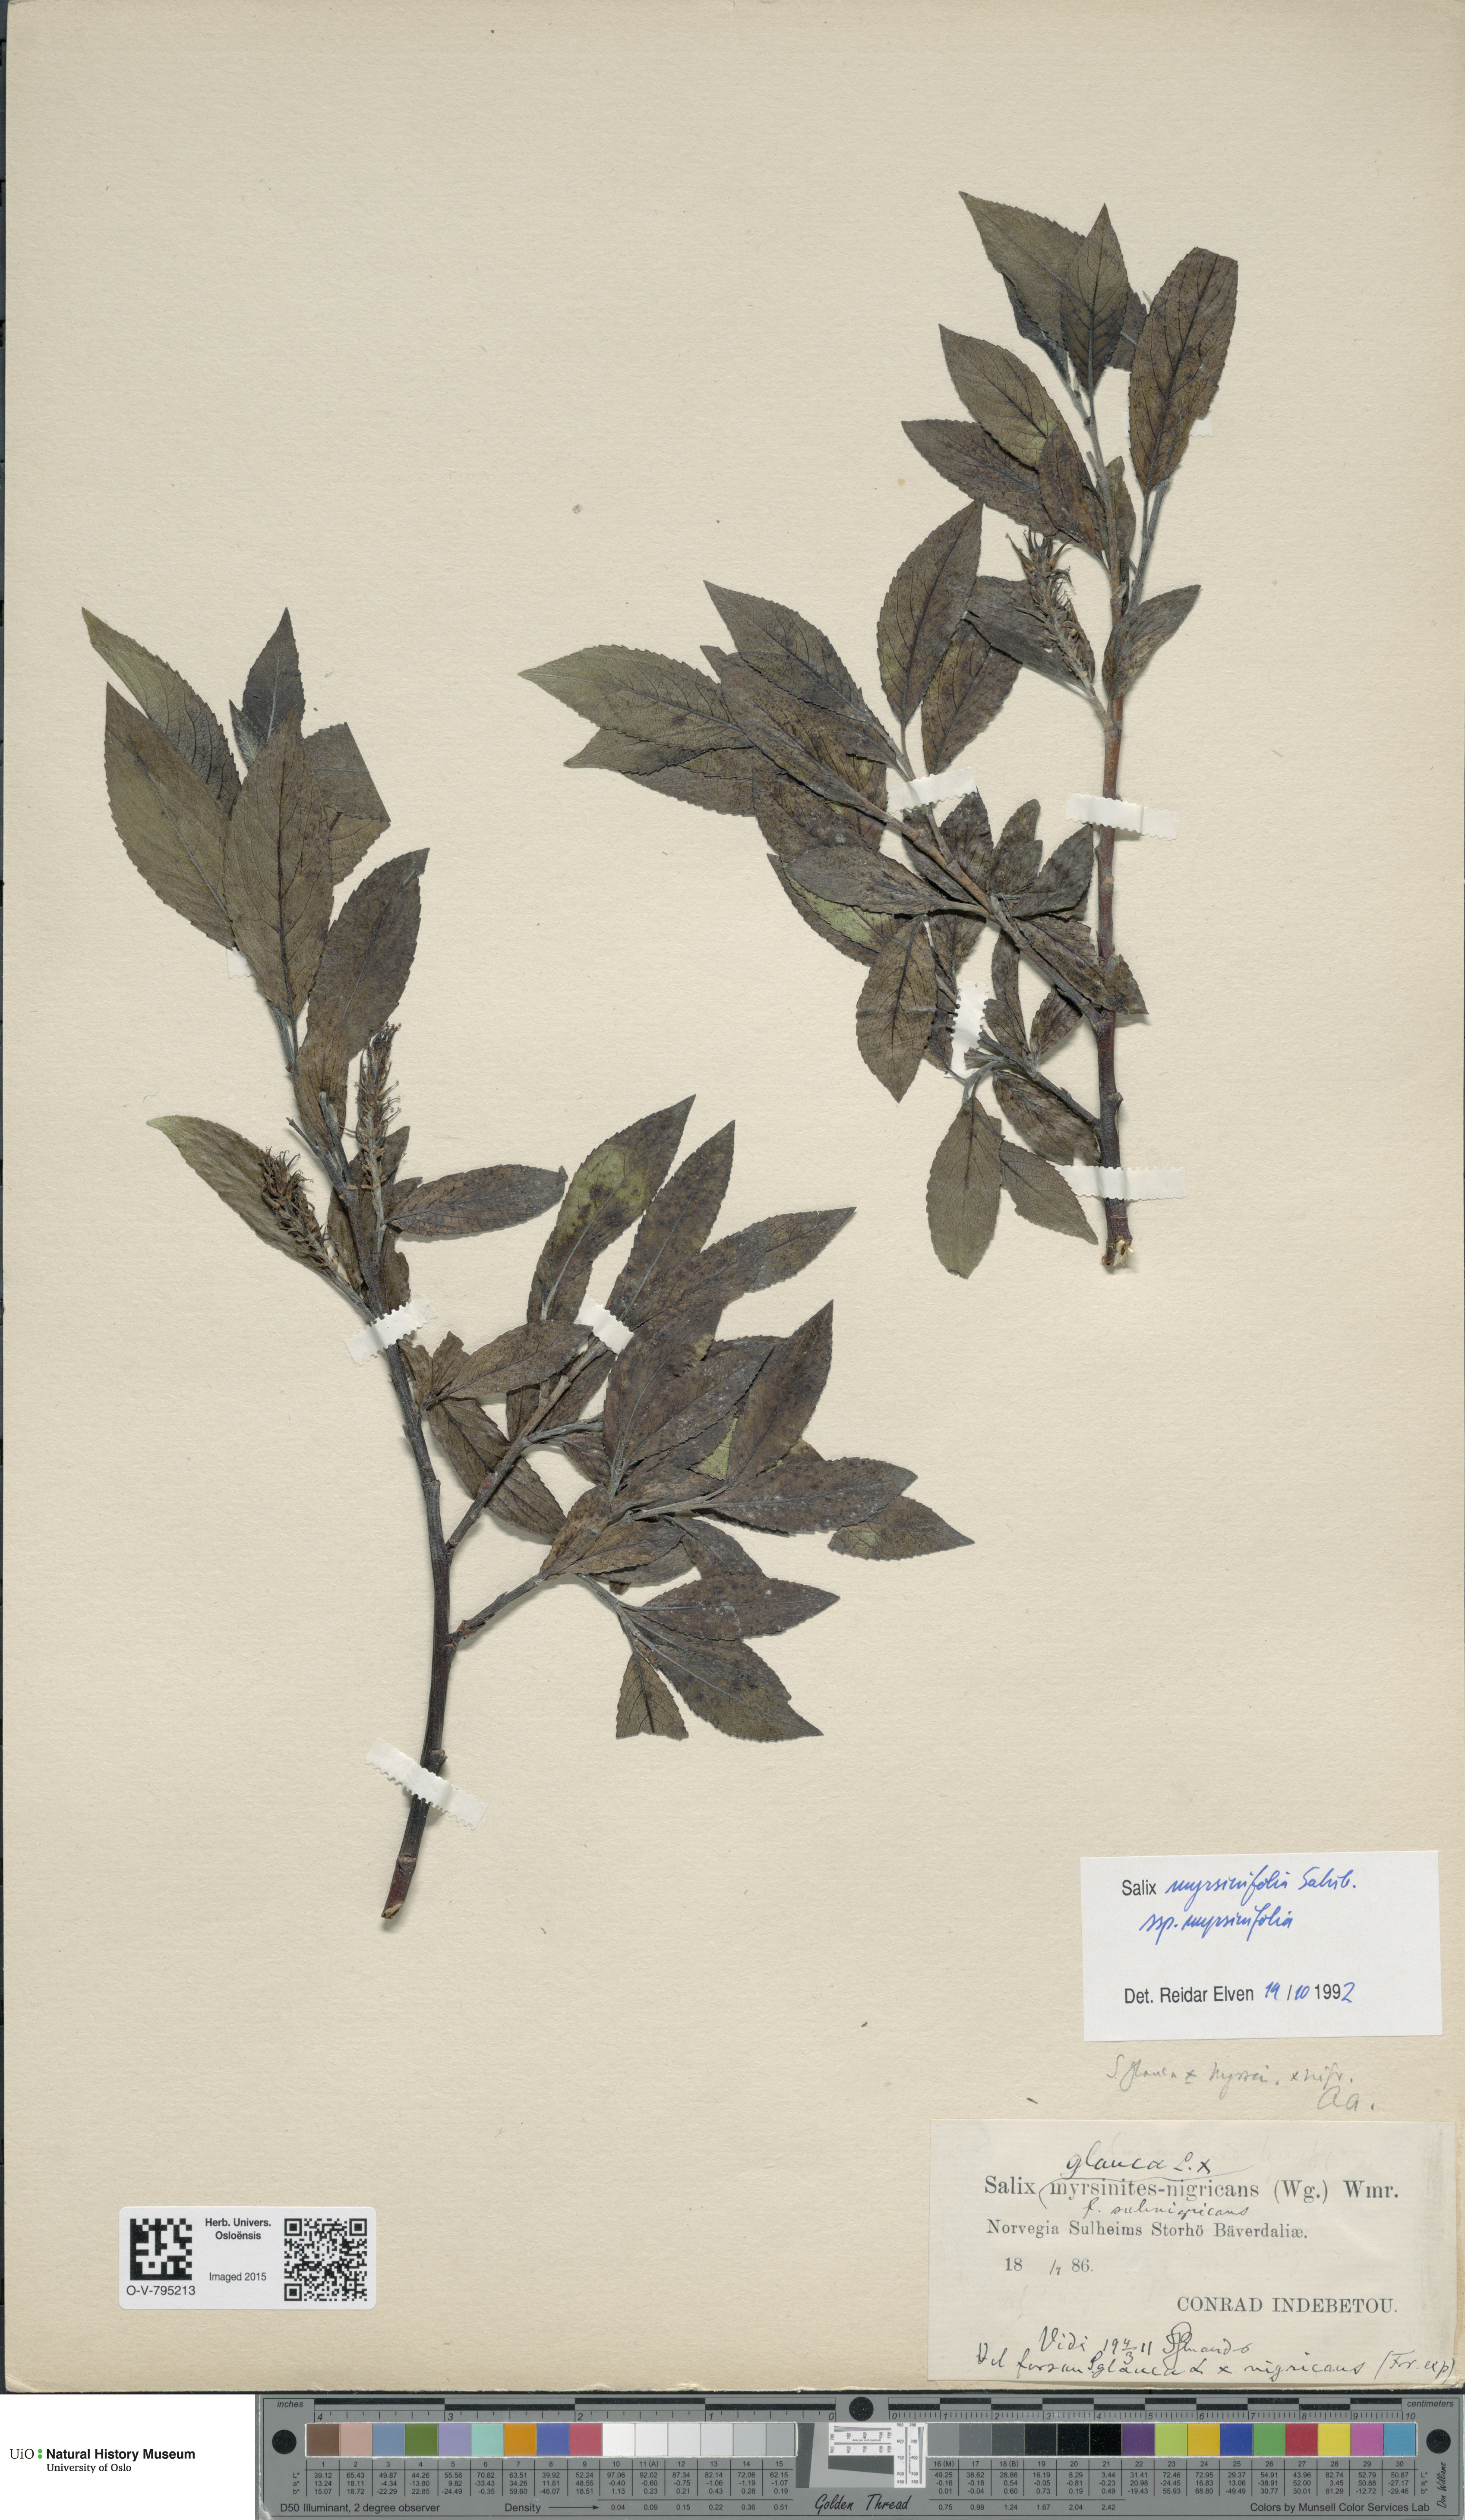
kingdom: Plantae
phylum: Tracheophyta
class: Magnoliopsida
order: Malpighiales
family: Salicaceae
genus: Salix
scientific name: Salix myrsinifolia
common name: Dark-leaved willow
